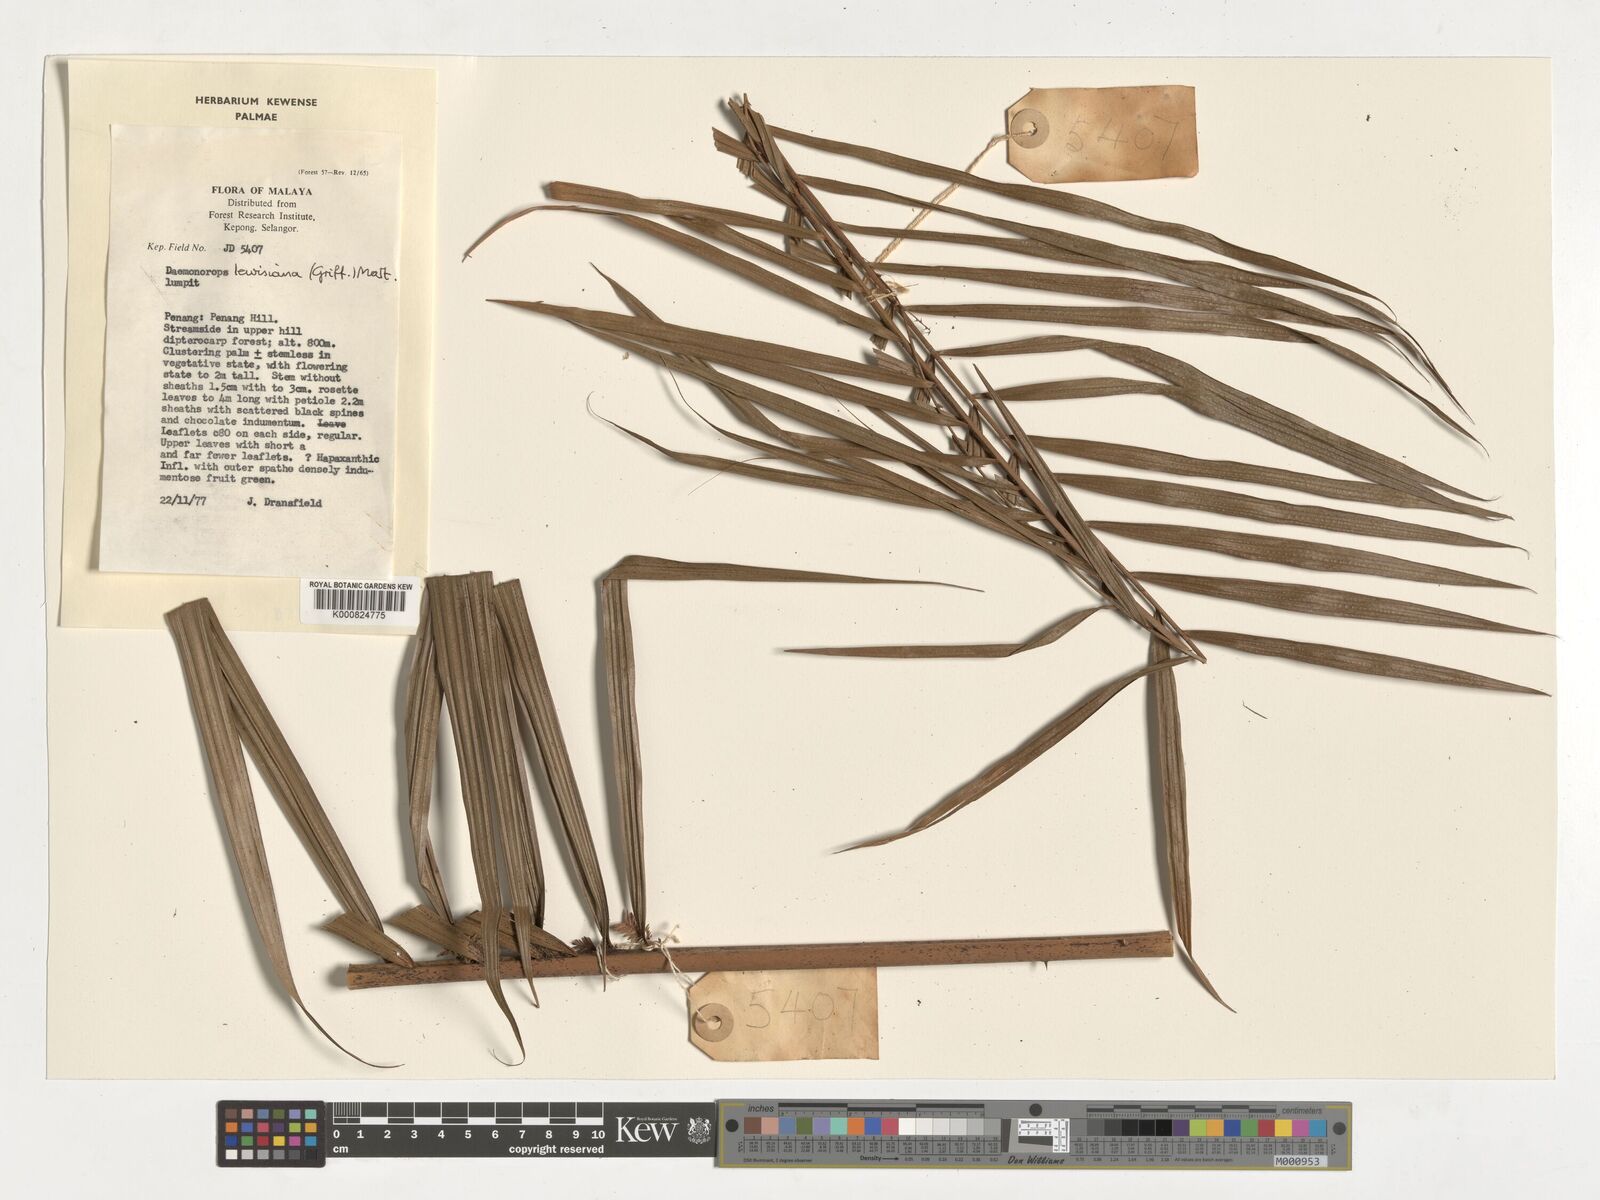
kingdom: Plantae
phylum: Tracheophyta
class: Liliopsida
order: Arecales
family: Arecaceae
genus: Calamus
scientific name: Calamus melanochaetes
